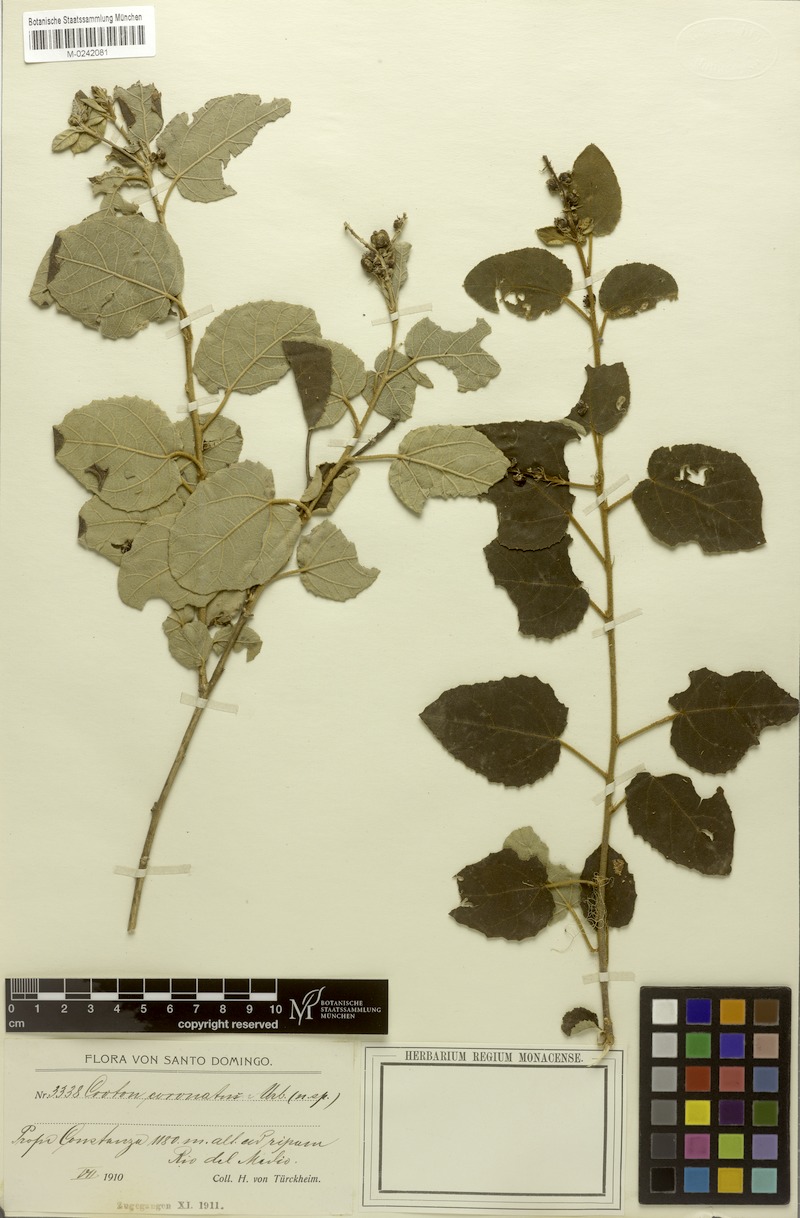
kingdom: Plantae
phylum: Tracheophyta
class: Magnoliopsida
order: Malpighiales
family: Euphorbiaceae
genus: Croton
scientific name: Croton coronatus
